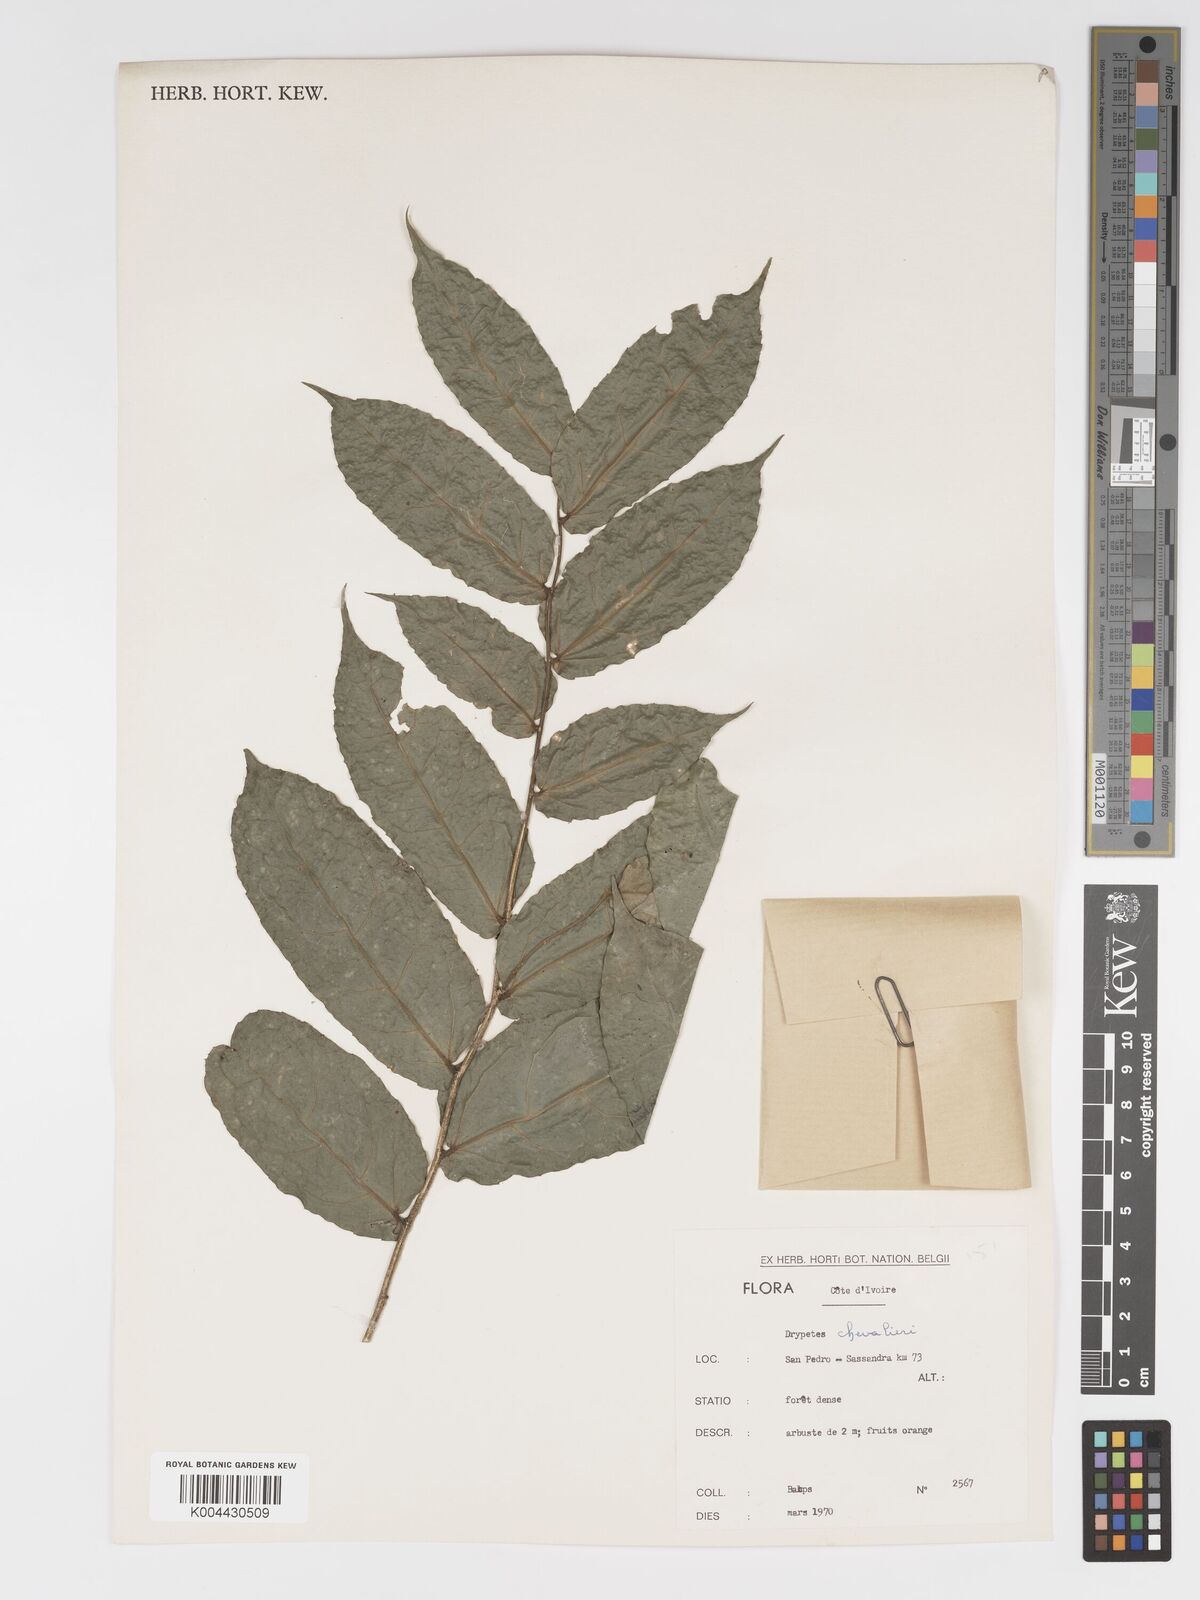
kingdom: Plantae
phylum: Tracheophyta
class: Magnoliopsida
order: Malpighiales
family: Putranjivaceae
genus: Drypetes
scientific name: Drypetes chevalieri
